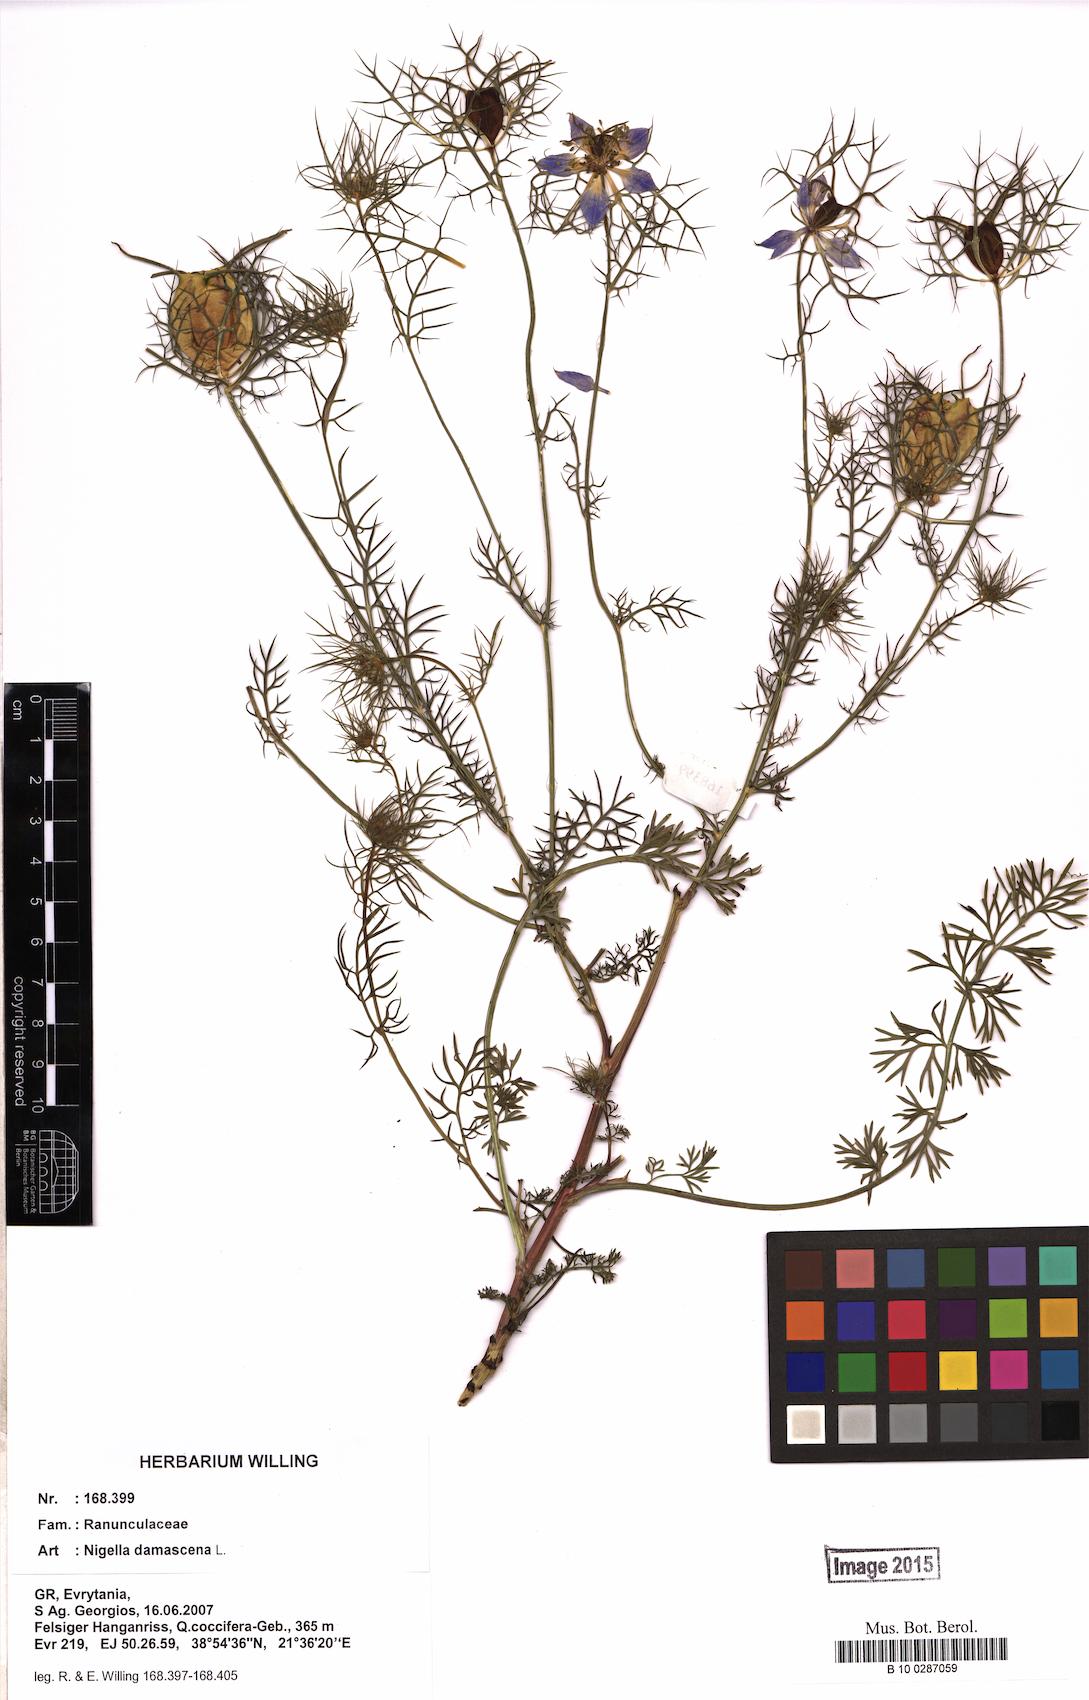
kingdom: Plantae
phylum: Tracheophyta
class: Magnoliopsida
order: Ranunculales
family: Ranunculaceae
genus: Nigella
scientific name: Nigella damascena
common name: Love-in-a-mist
